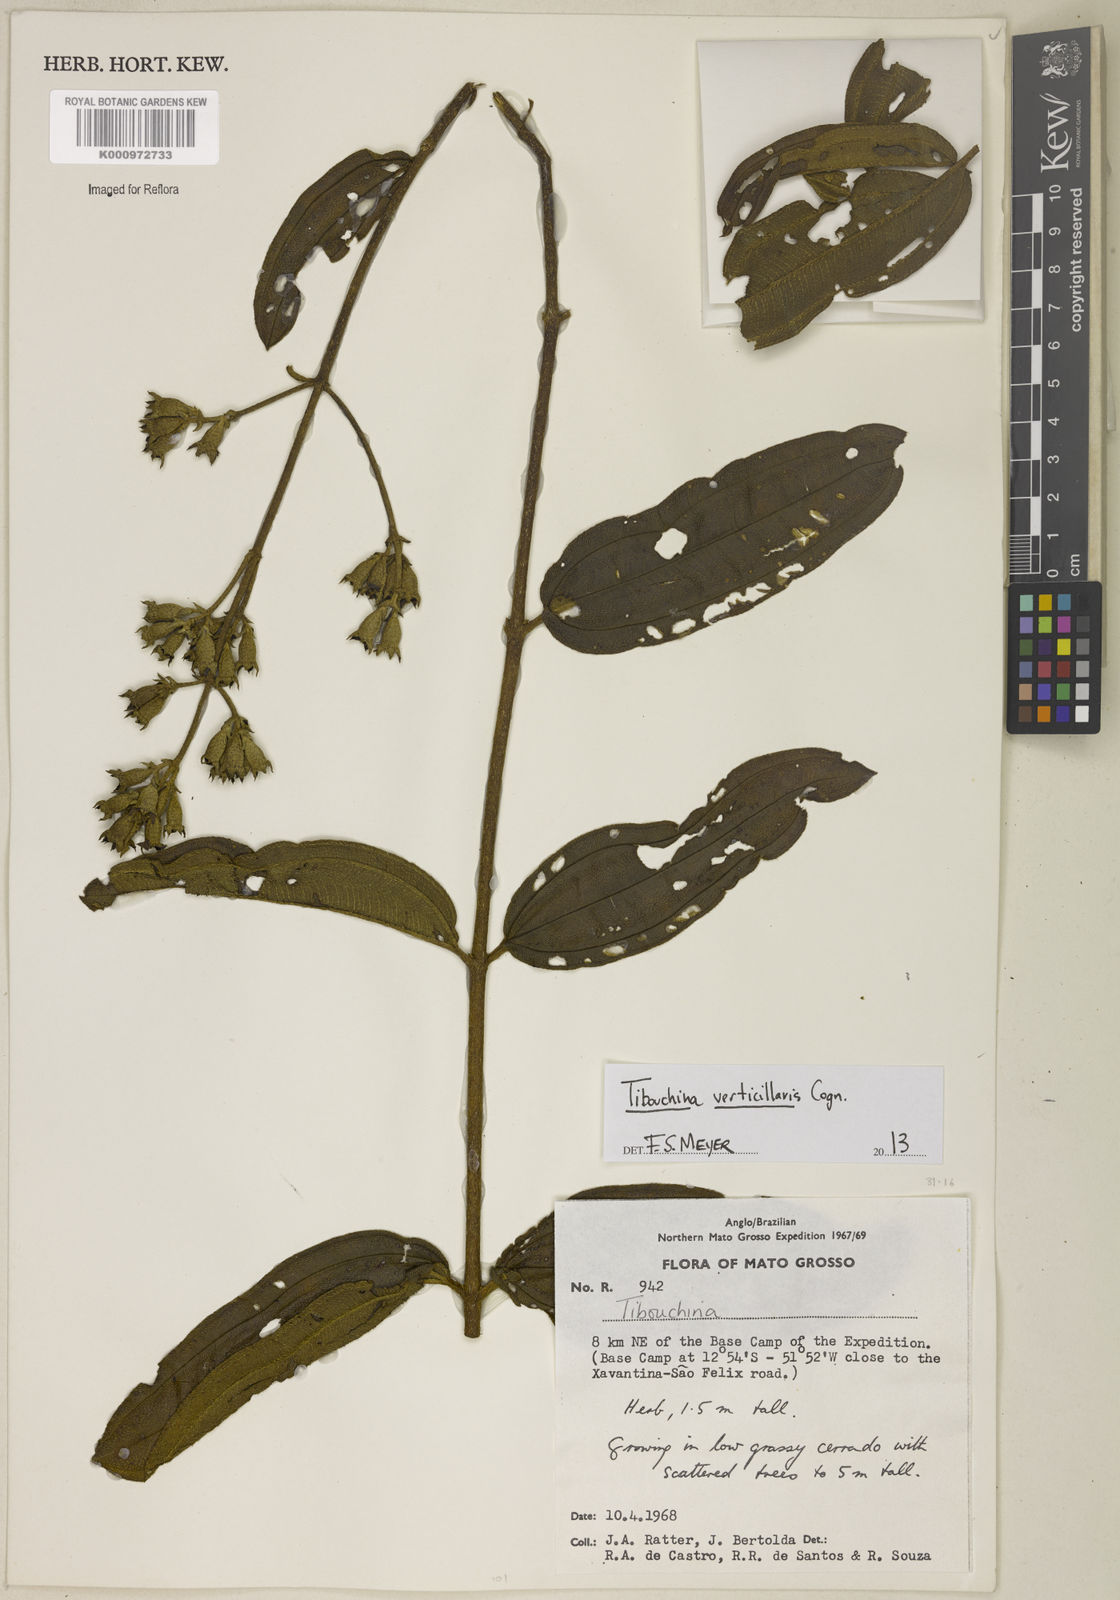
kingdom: Plantae
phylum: Tracheophyta
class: Magnoliopsida
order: Myrtales
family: Melastomataceae
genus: Tibouchina
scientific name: Tibouchina verticillaris
